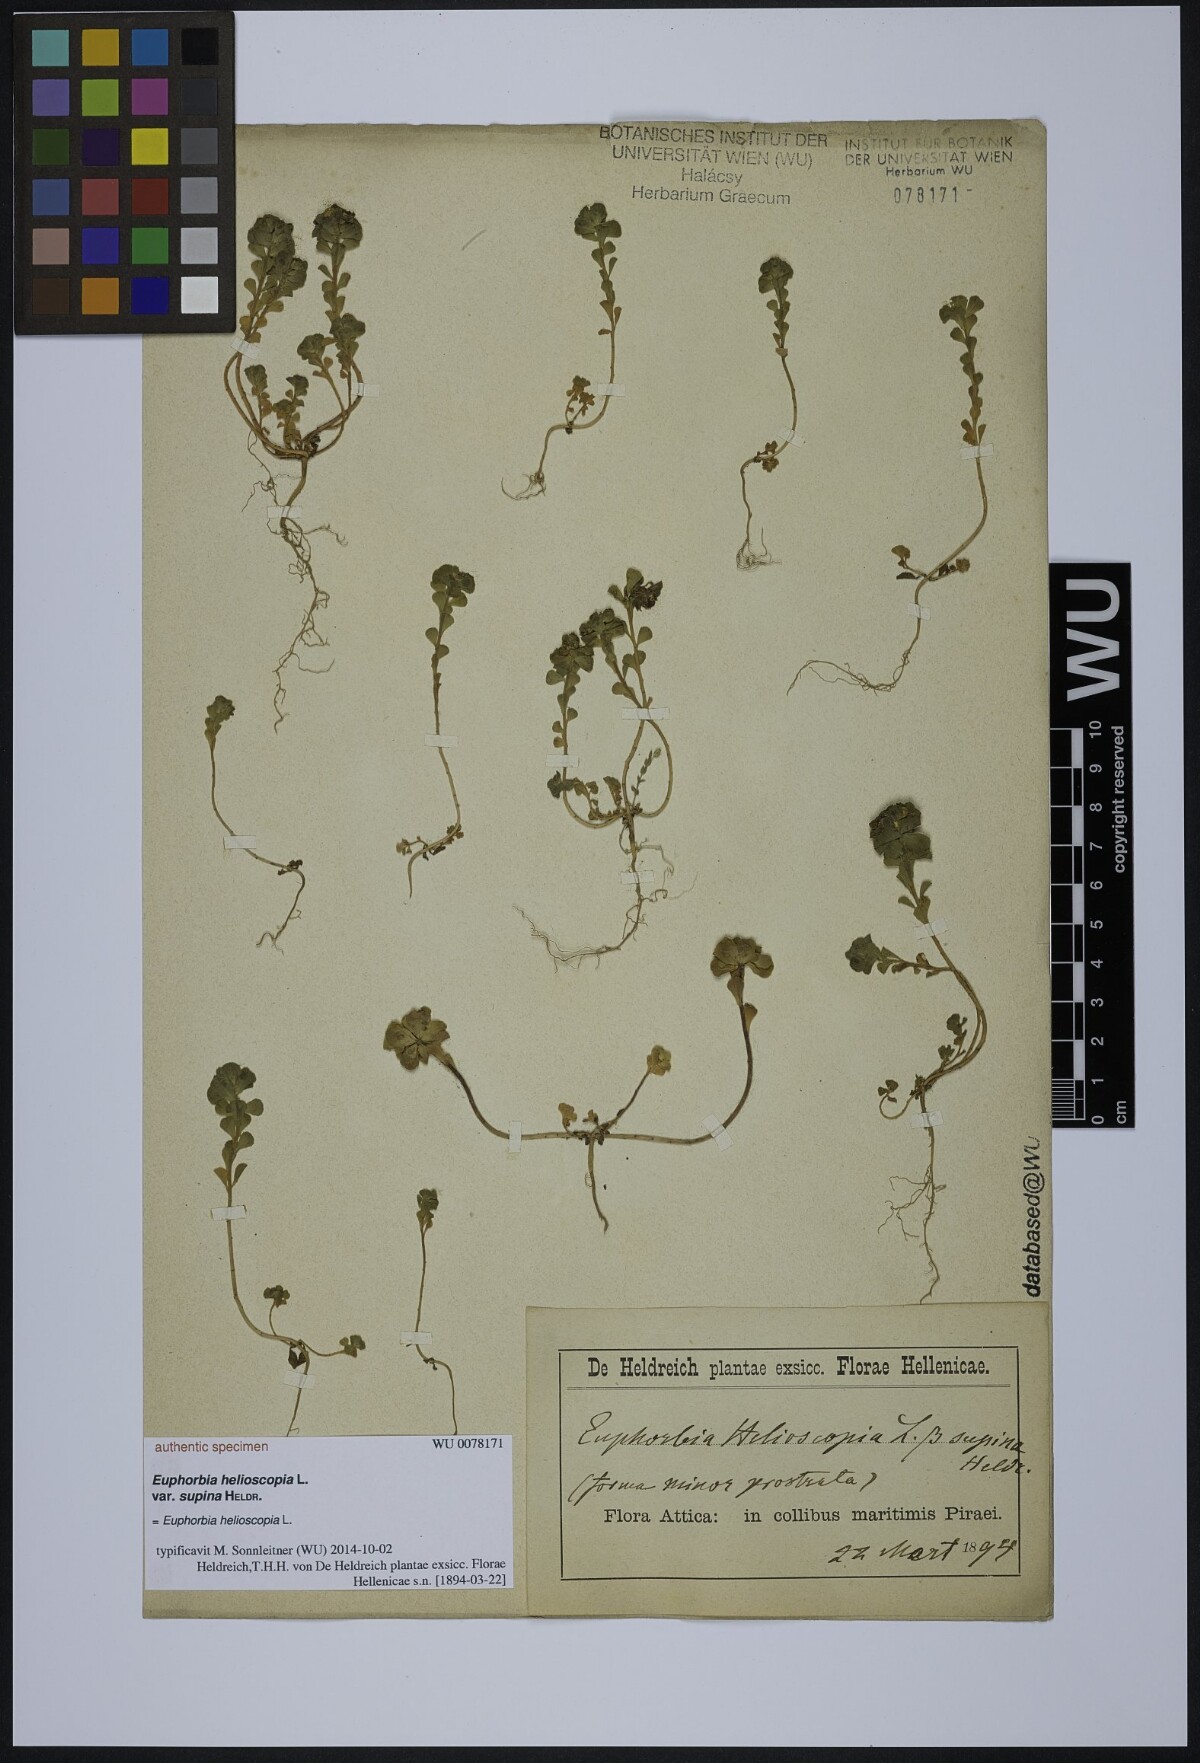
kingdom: Plantae
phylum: Tracheophyta
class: Magnoliopsida
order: Malpighiales
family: Euphorbiaceae
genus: Euphorbia
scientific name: Euphorbia helioscopia
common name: Sun spurge
